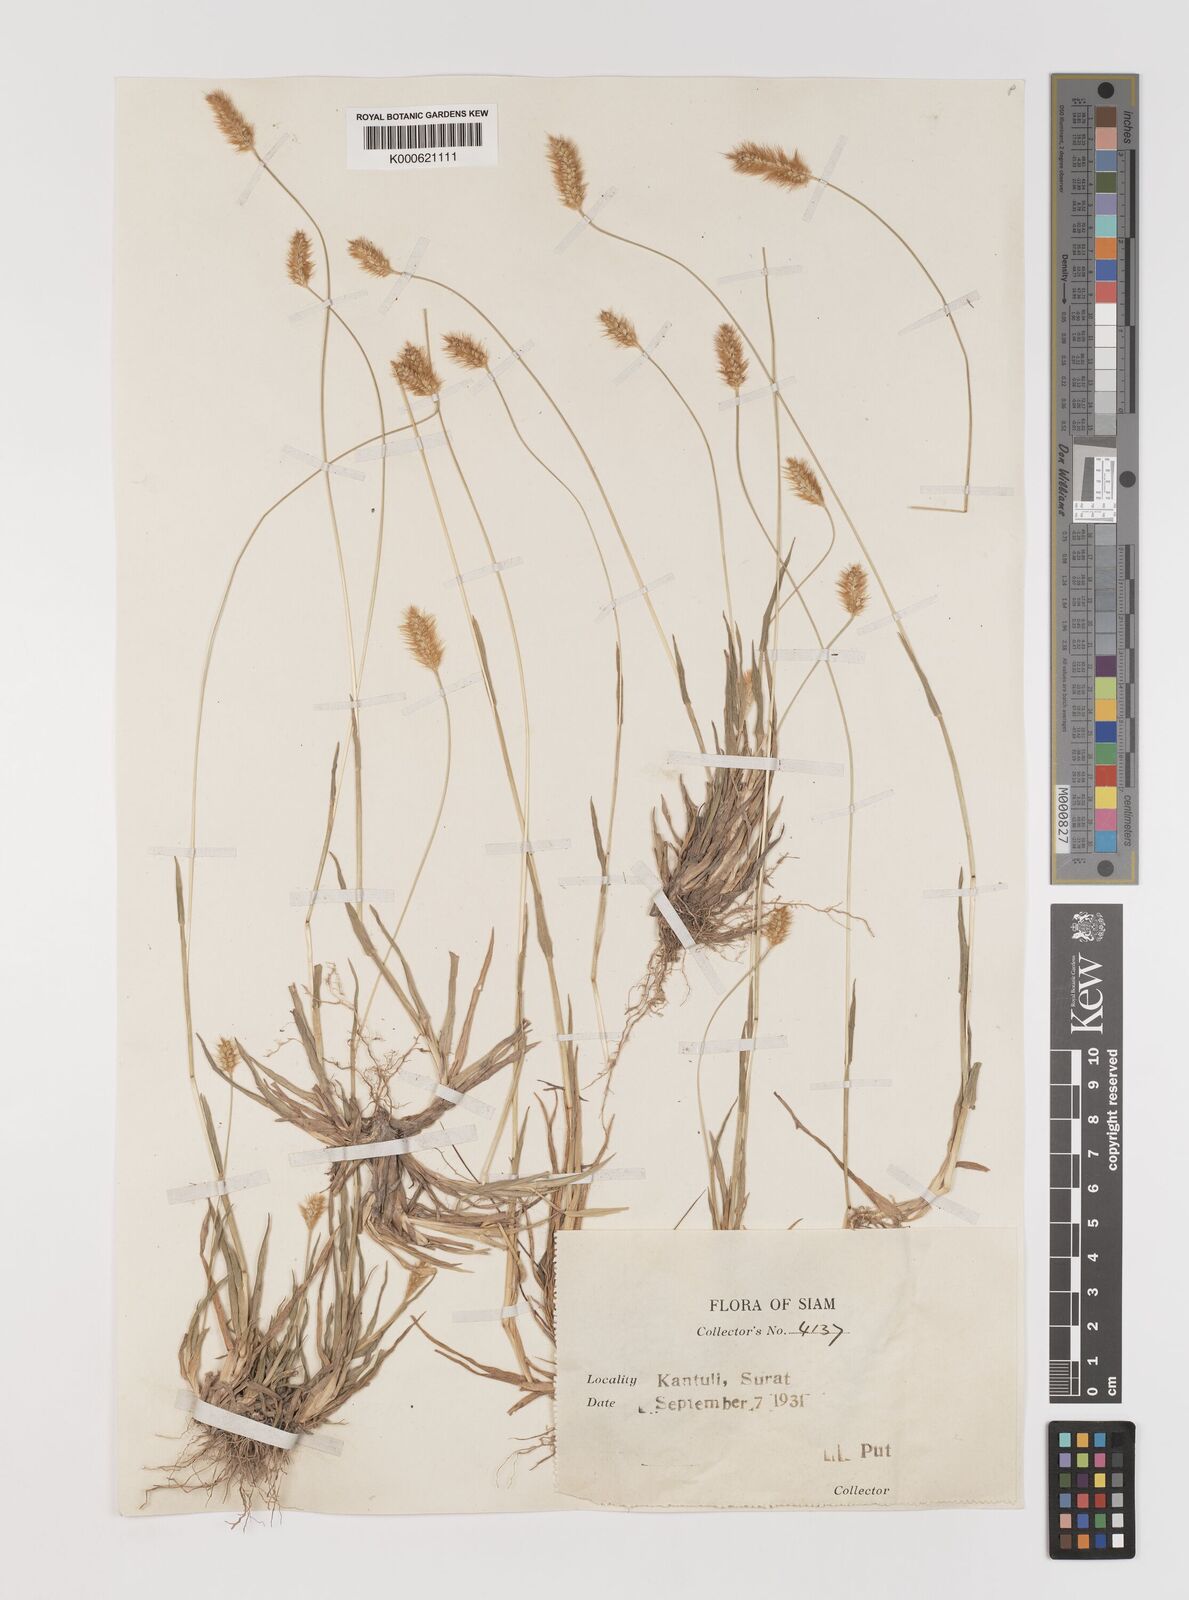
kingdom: Plantae
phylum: Tracheophyta
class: Liliopsida
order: Poales
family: Poaceae
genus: Setaria
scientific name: Setaria pumila
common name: Yellow bristle-grass
